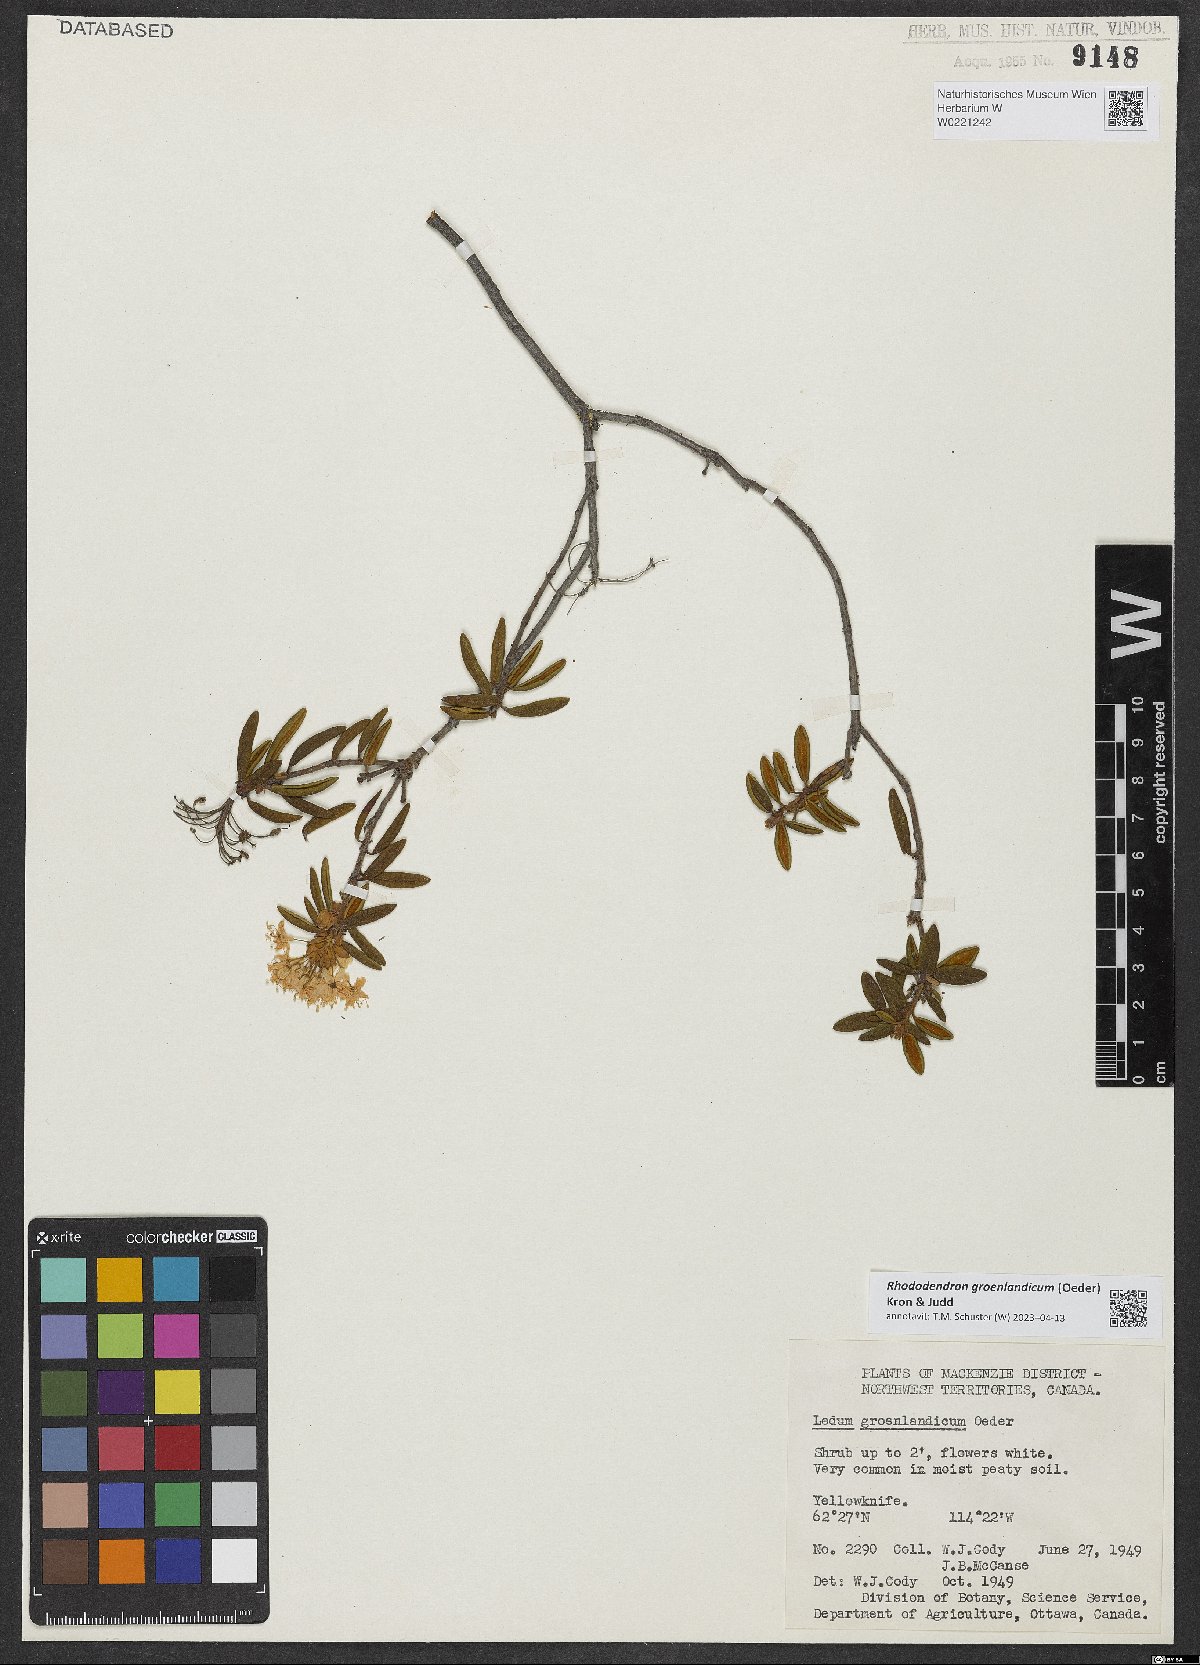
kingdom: Plantae
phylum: Tracheophyta
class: Magnoliopsida
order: Ericales
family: Ericaceae
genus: Rhododendron
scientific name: Rhododendron groenlandicum
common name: Bog labrador tea
